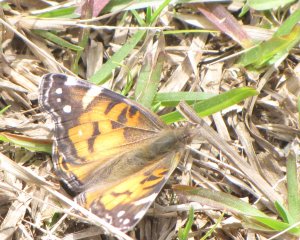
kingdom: Animalia
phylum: Arthropoda
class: Insecta
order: Lepidoptera
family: Nymphalidae
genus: Vanessa
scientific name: Vanessa virginiensis
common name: American Lady
